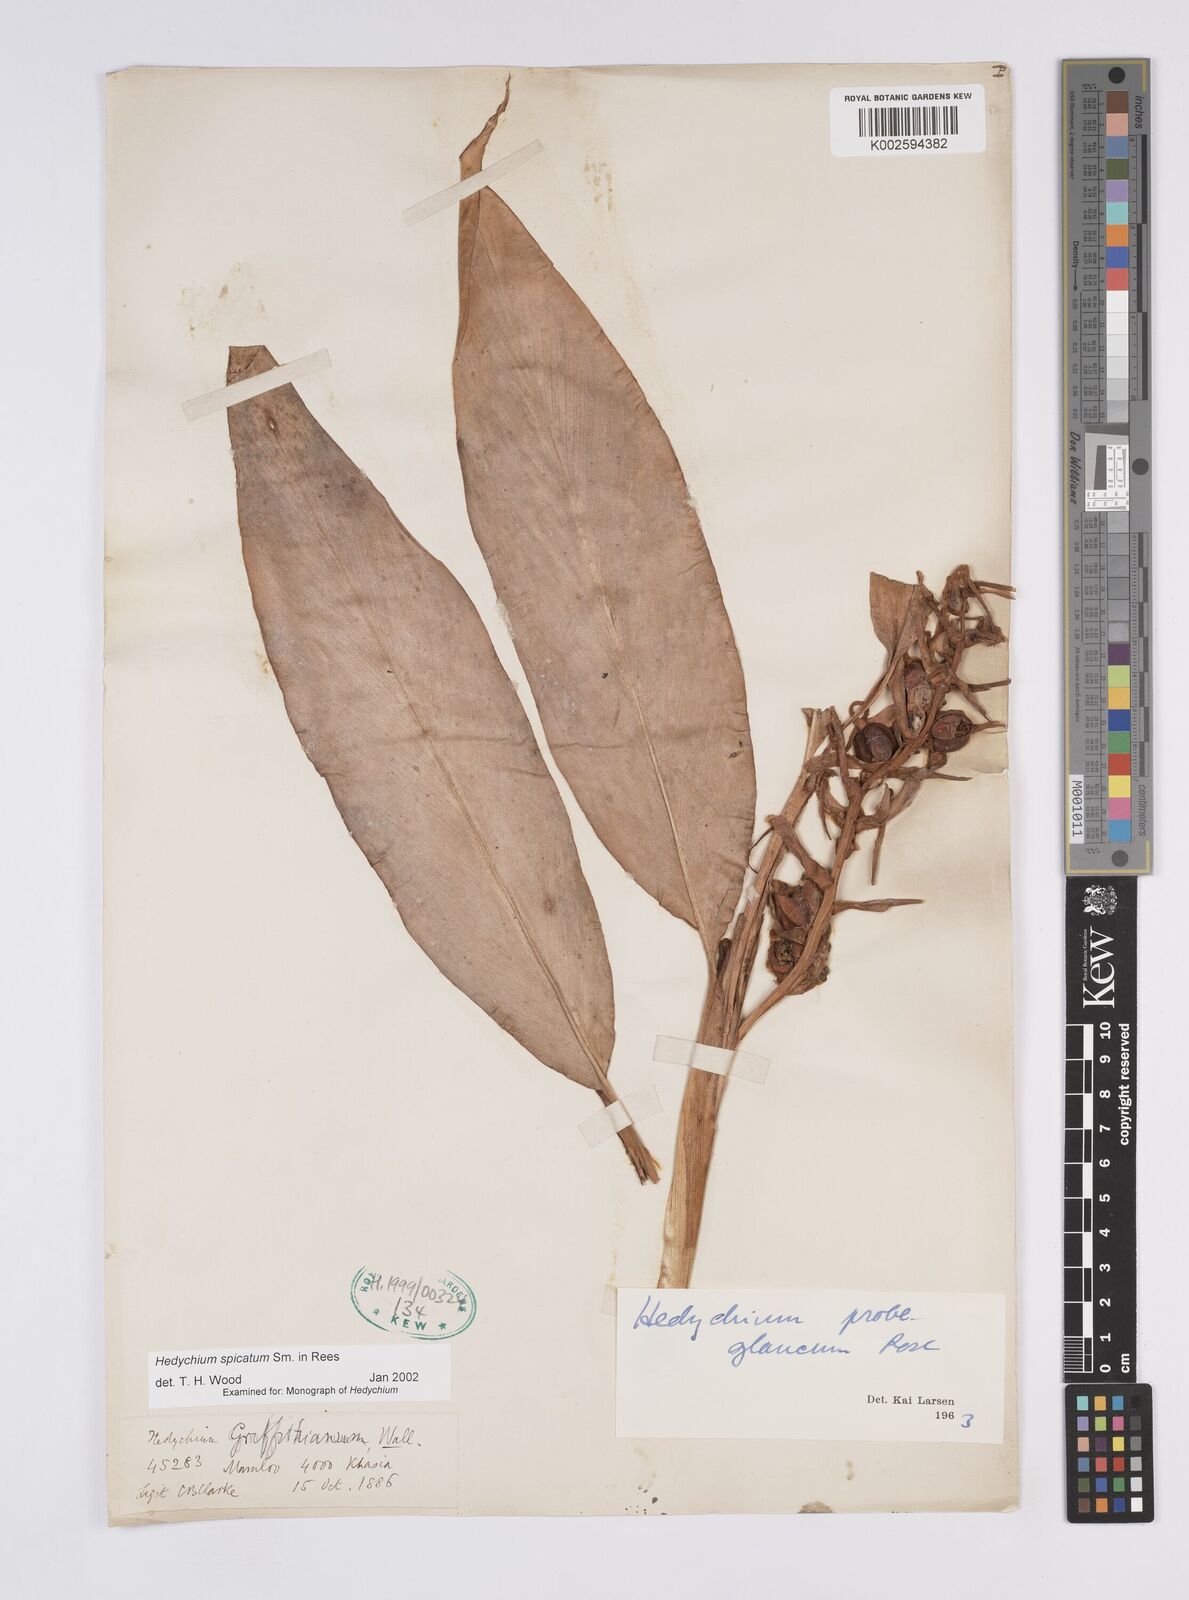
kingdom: Plantae
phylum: Tracheophyta
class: Liliopsida
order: Zingiberales
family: Zingiberaceae
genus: Hedychium
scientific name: Hedychium spicatum
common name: Spiked ginger-lily
